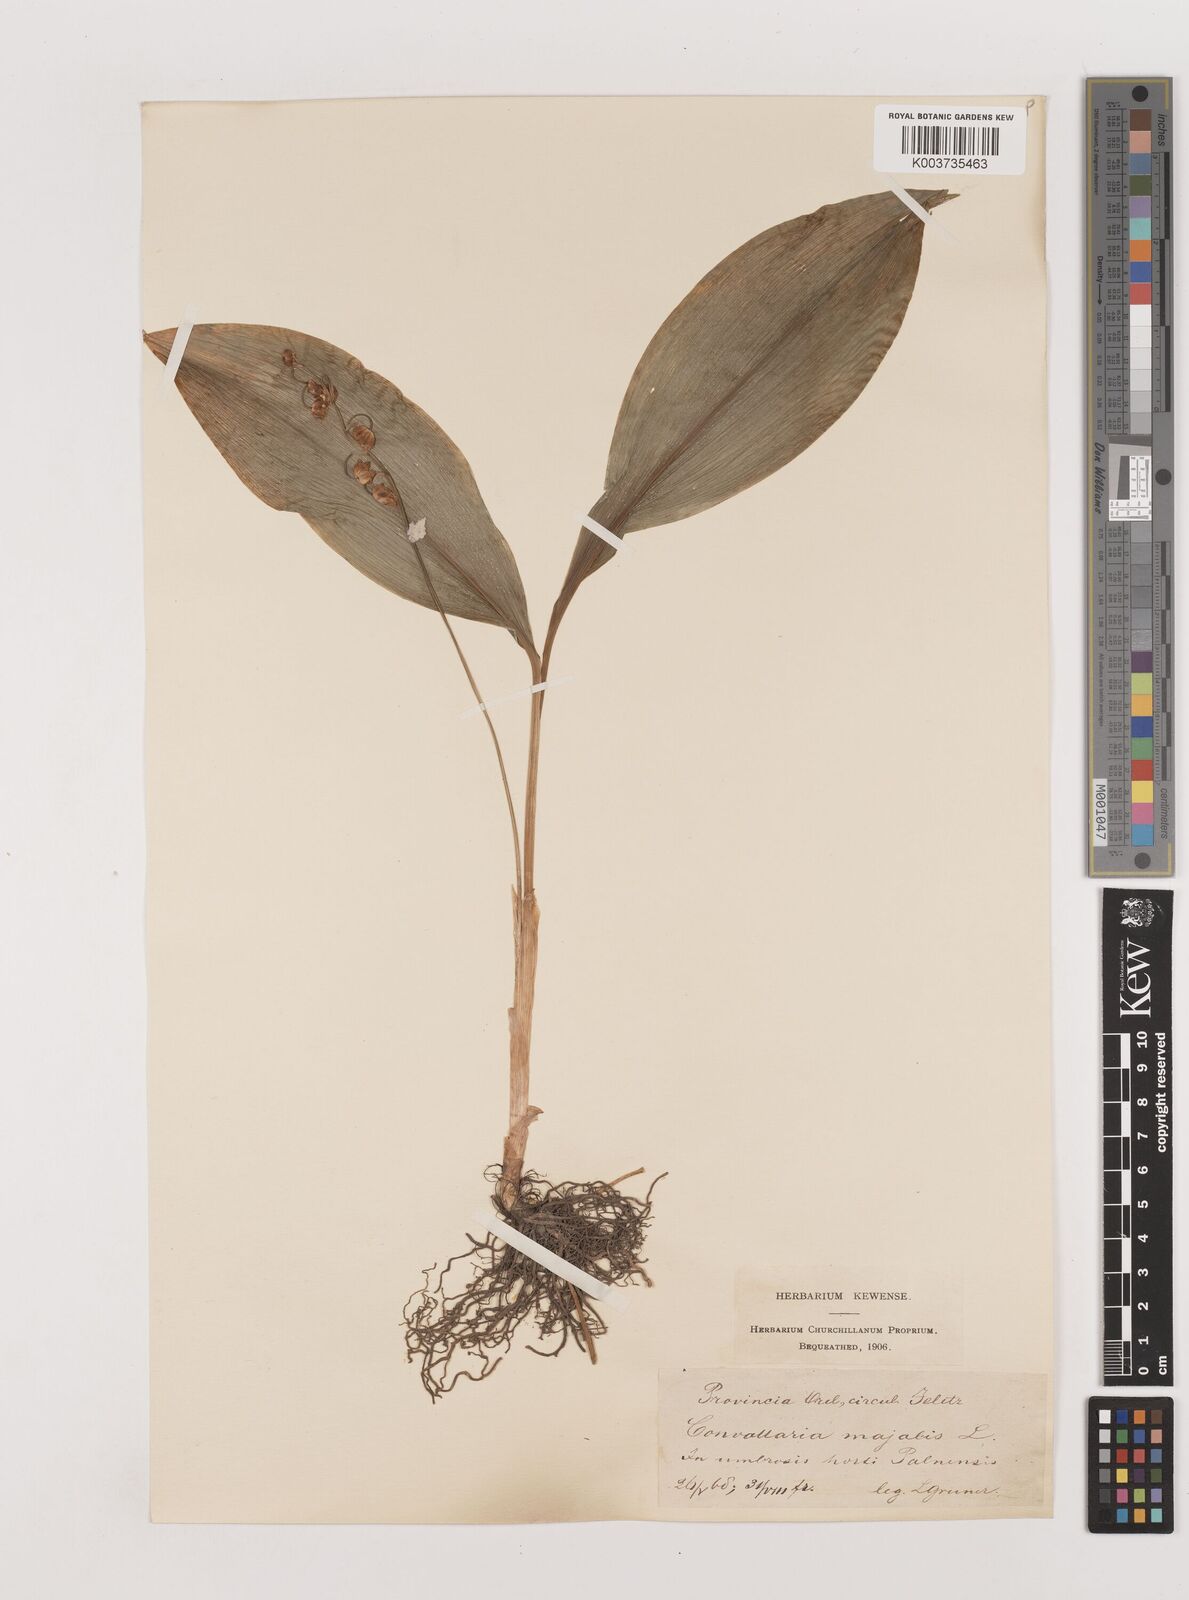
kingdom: Plantae
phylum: Tracheophyta
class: Liliopsida
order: Asparagales
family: Asparagaceae
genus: Convallaria
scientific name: Convallaria majalis
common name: Lily-of-the-valley
